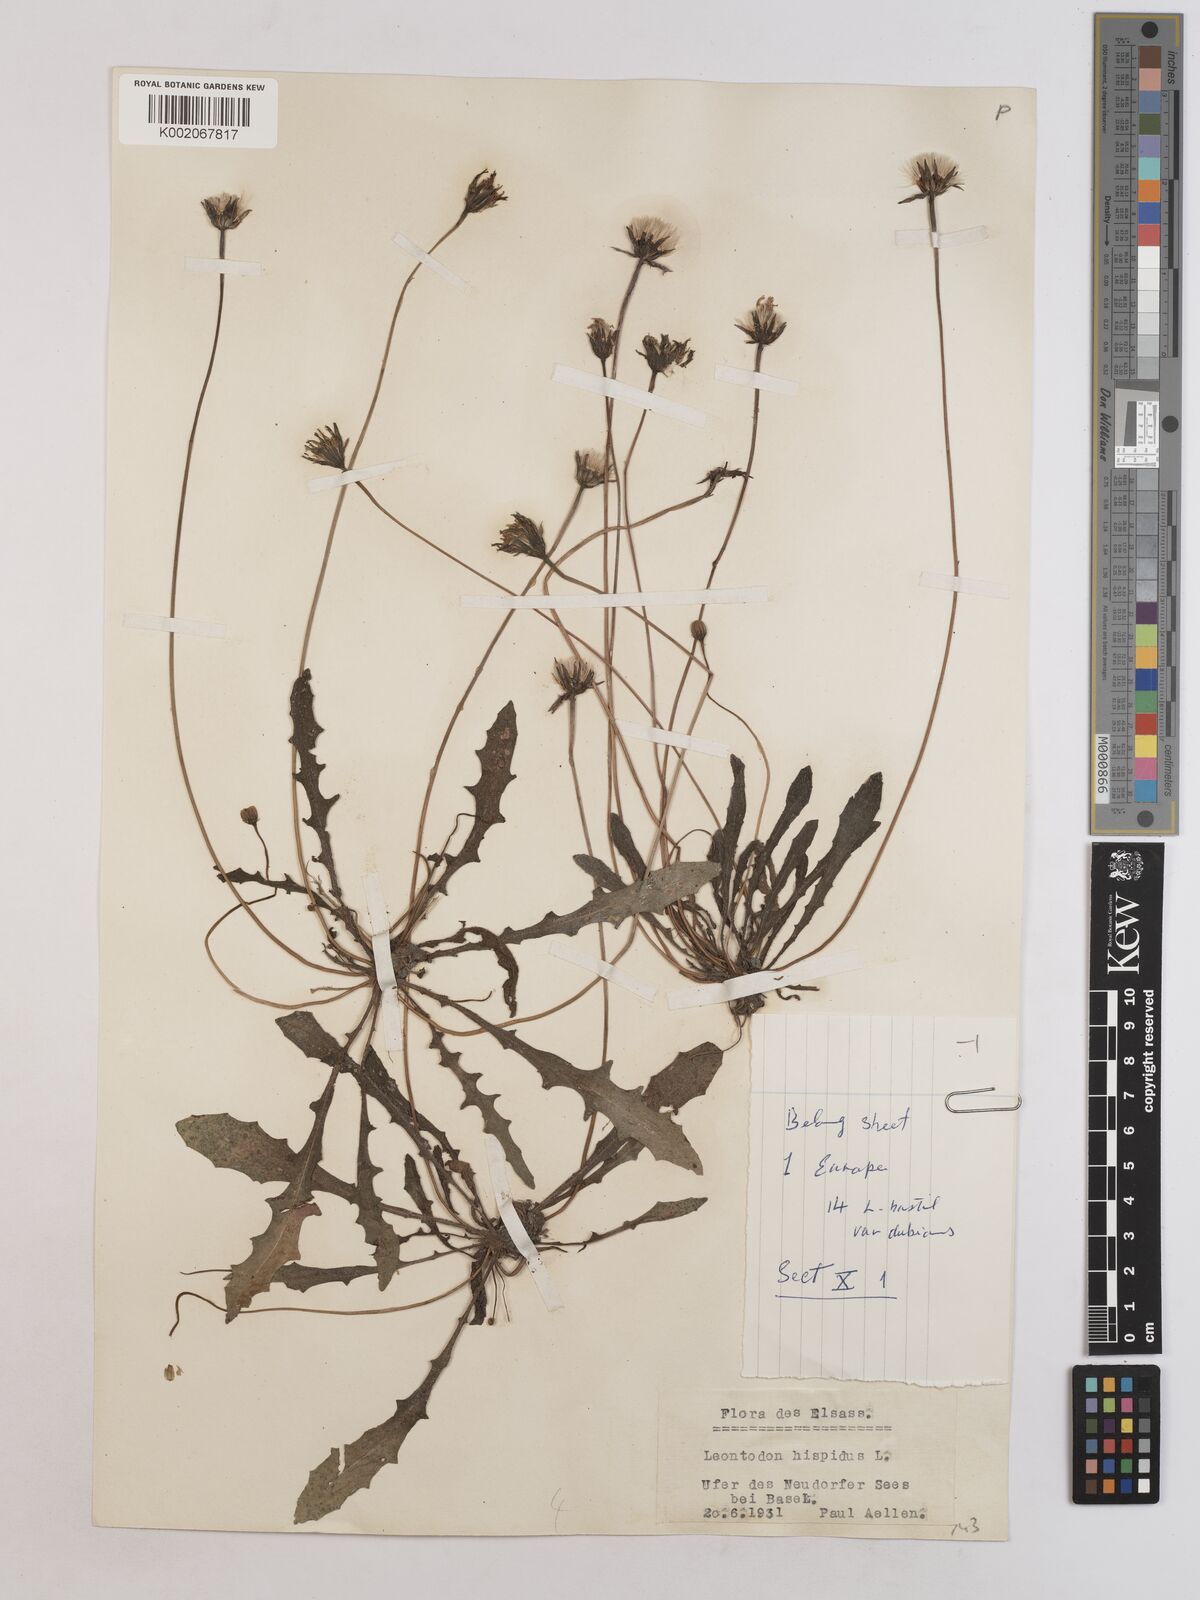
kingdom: Plantae
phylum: Tracheophyta
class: Magnoliopsida
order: Asterales
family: Asteraceae
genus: Leontodon
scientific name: Leontodon hispidus
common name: Rough hawkbit
